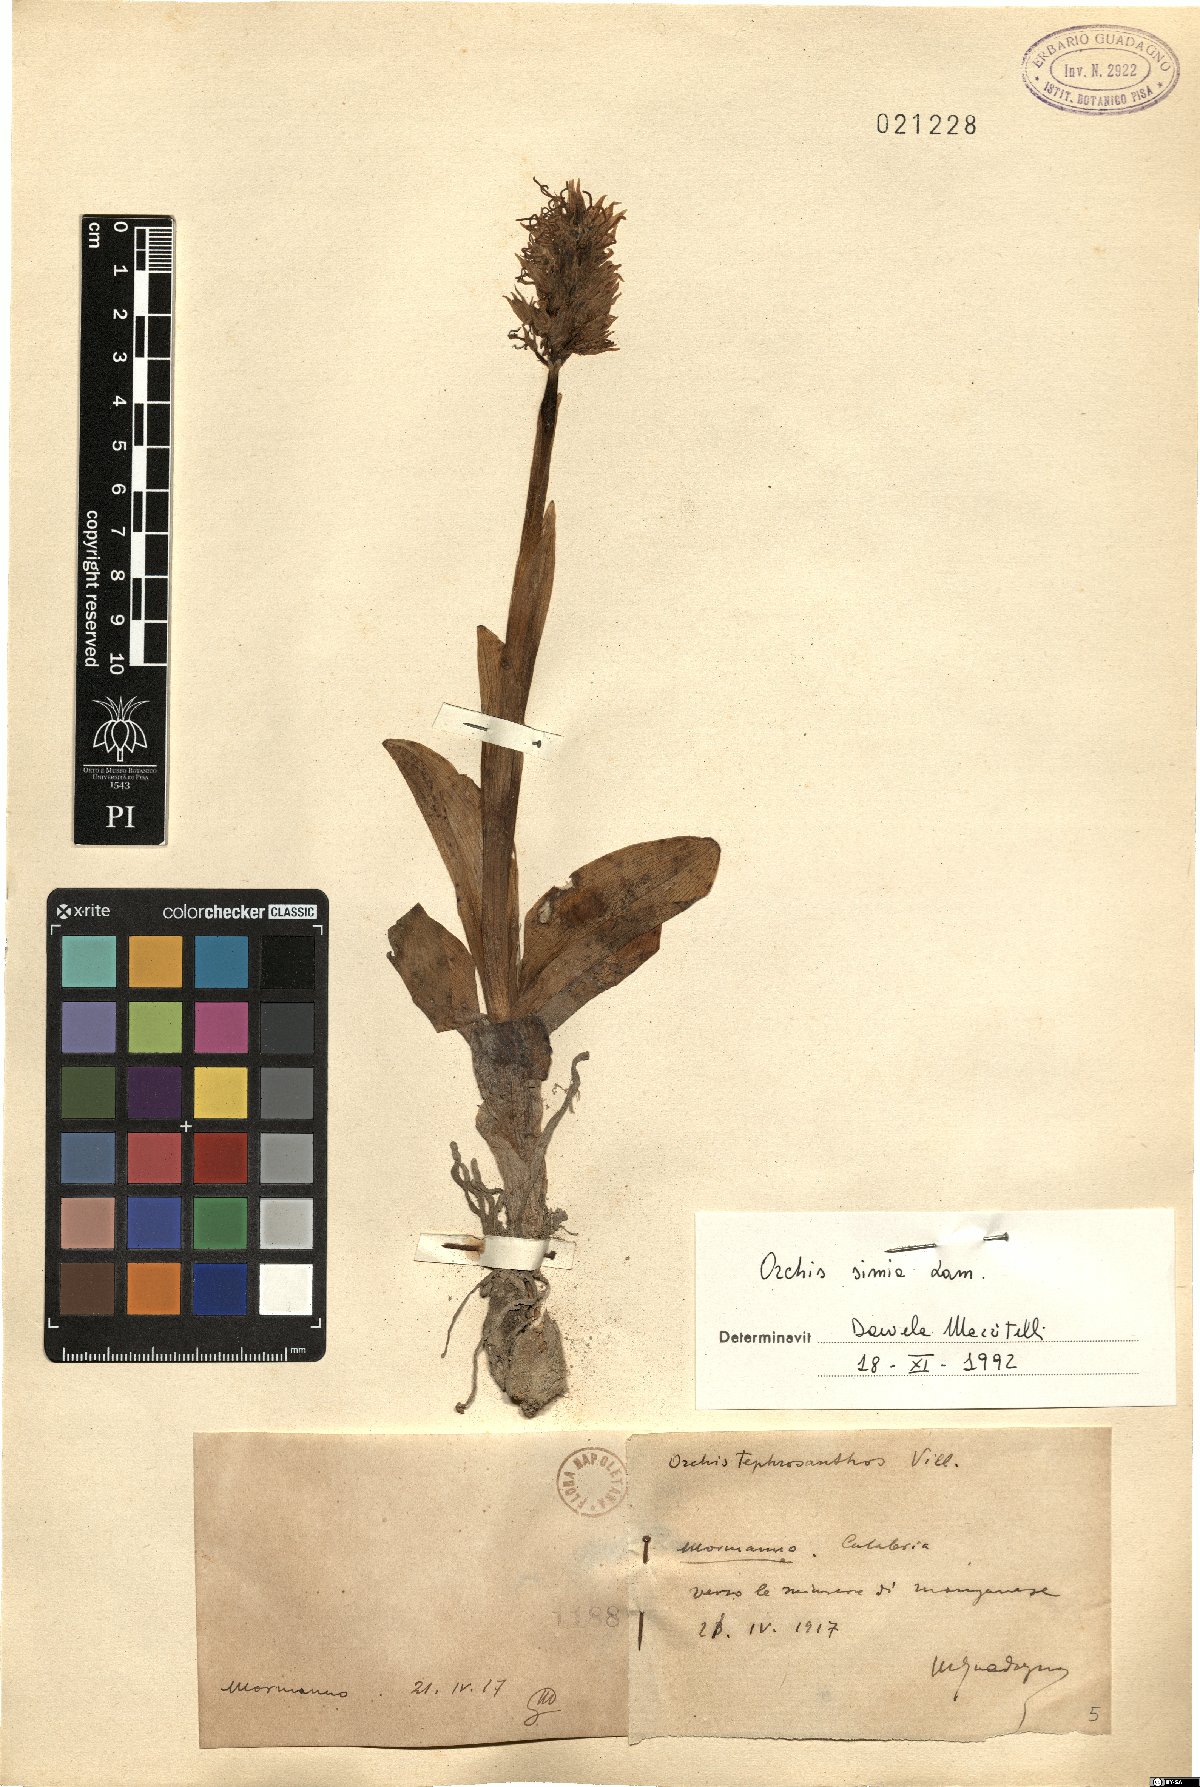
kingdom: Plantae
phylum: Tracheophyta
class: Liliopsida
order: Asparagales
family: Orchidaceae
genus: Orchis
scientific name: Orchis simia
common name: Monkey orchid
